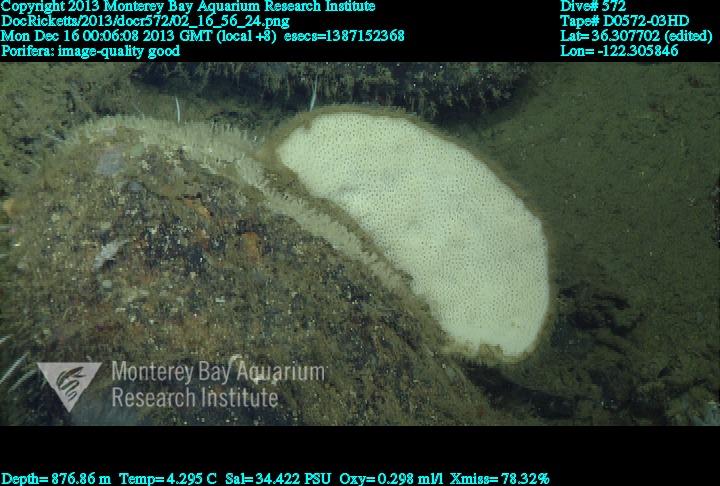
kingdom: Animalia
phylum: Porifera
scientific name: Porifera
